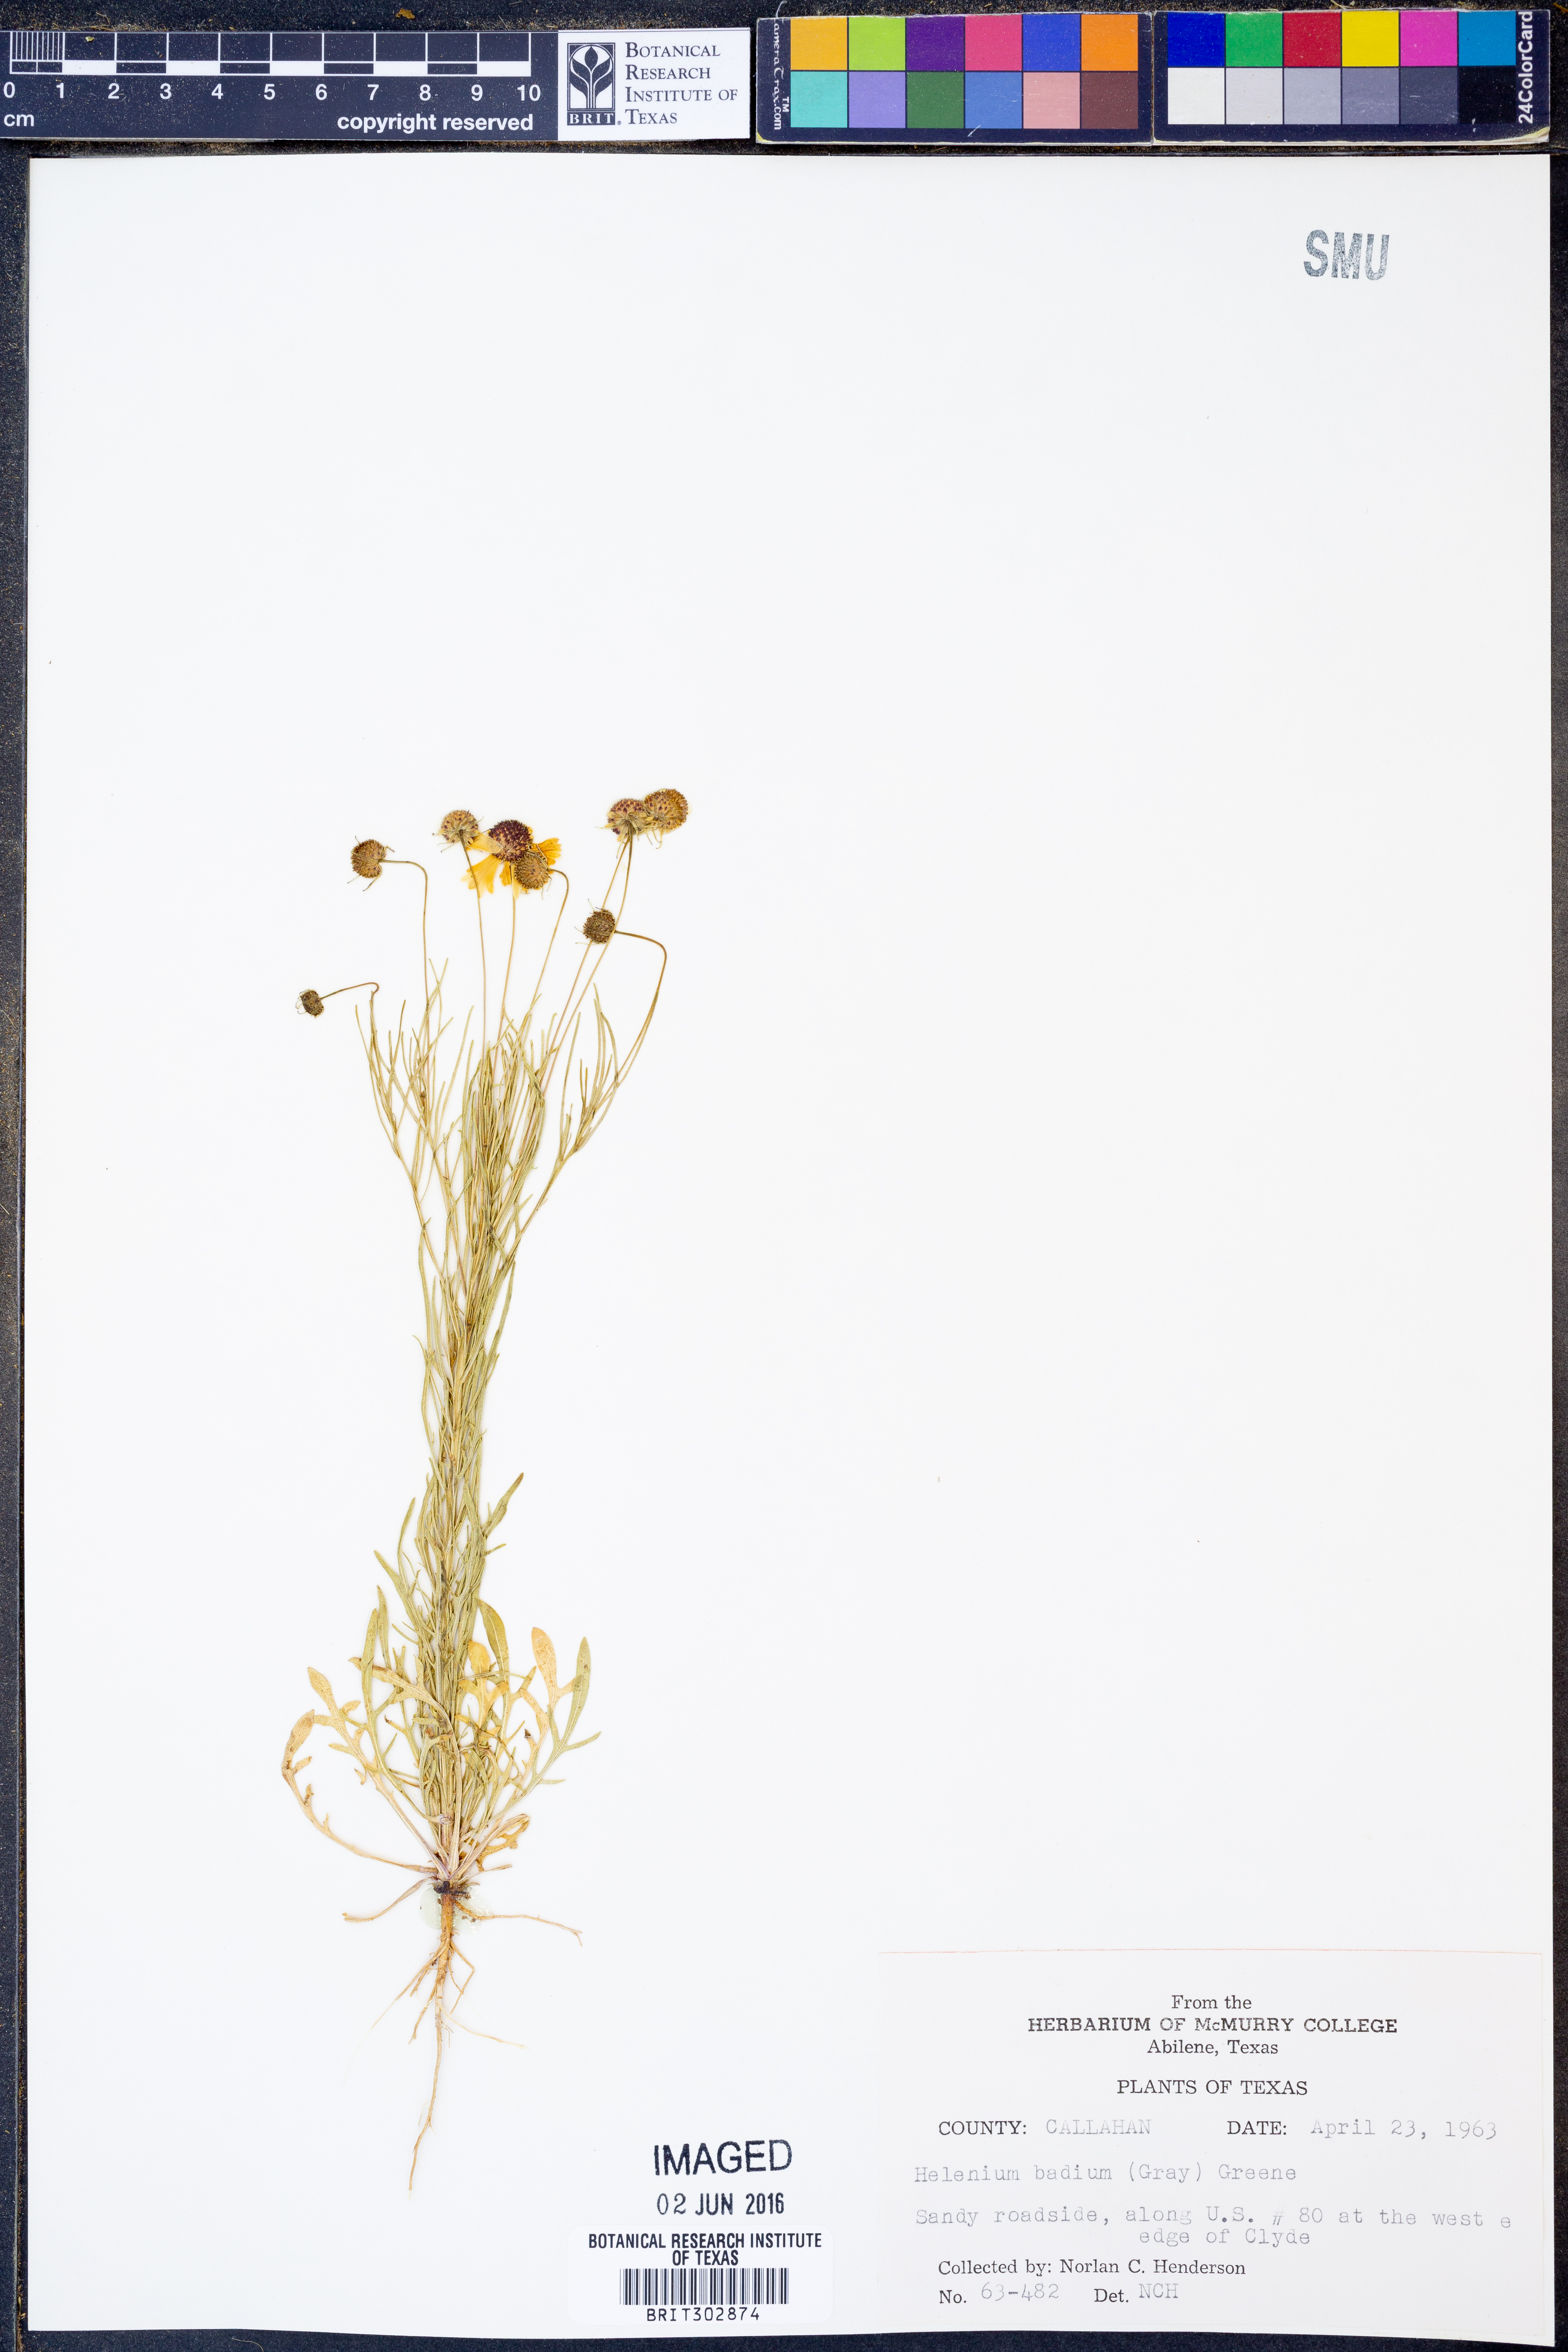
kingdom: Plantae
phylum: Tracheophyta
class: Magnoliopsida
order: Asterales
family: Asteraceae
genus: Helenium
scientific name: Helenium amarum
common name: Bitter sneezeweed
